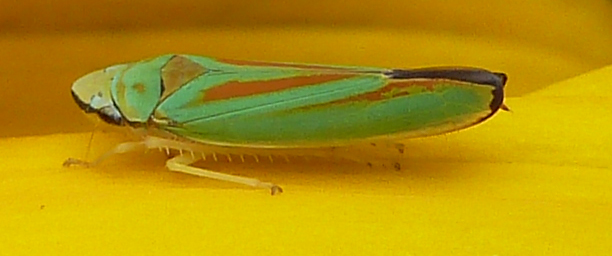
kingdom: Animalia
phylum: Arthropoda
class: Insecta
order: Hemiptera
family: Cicadellidae
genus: Graphocephala
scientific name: Graphocephala fennahi
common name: Rhododendron leafhopper
